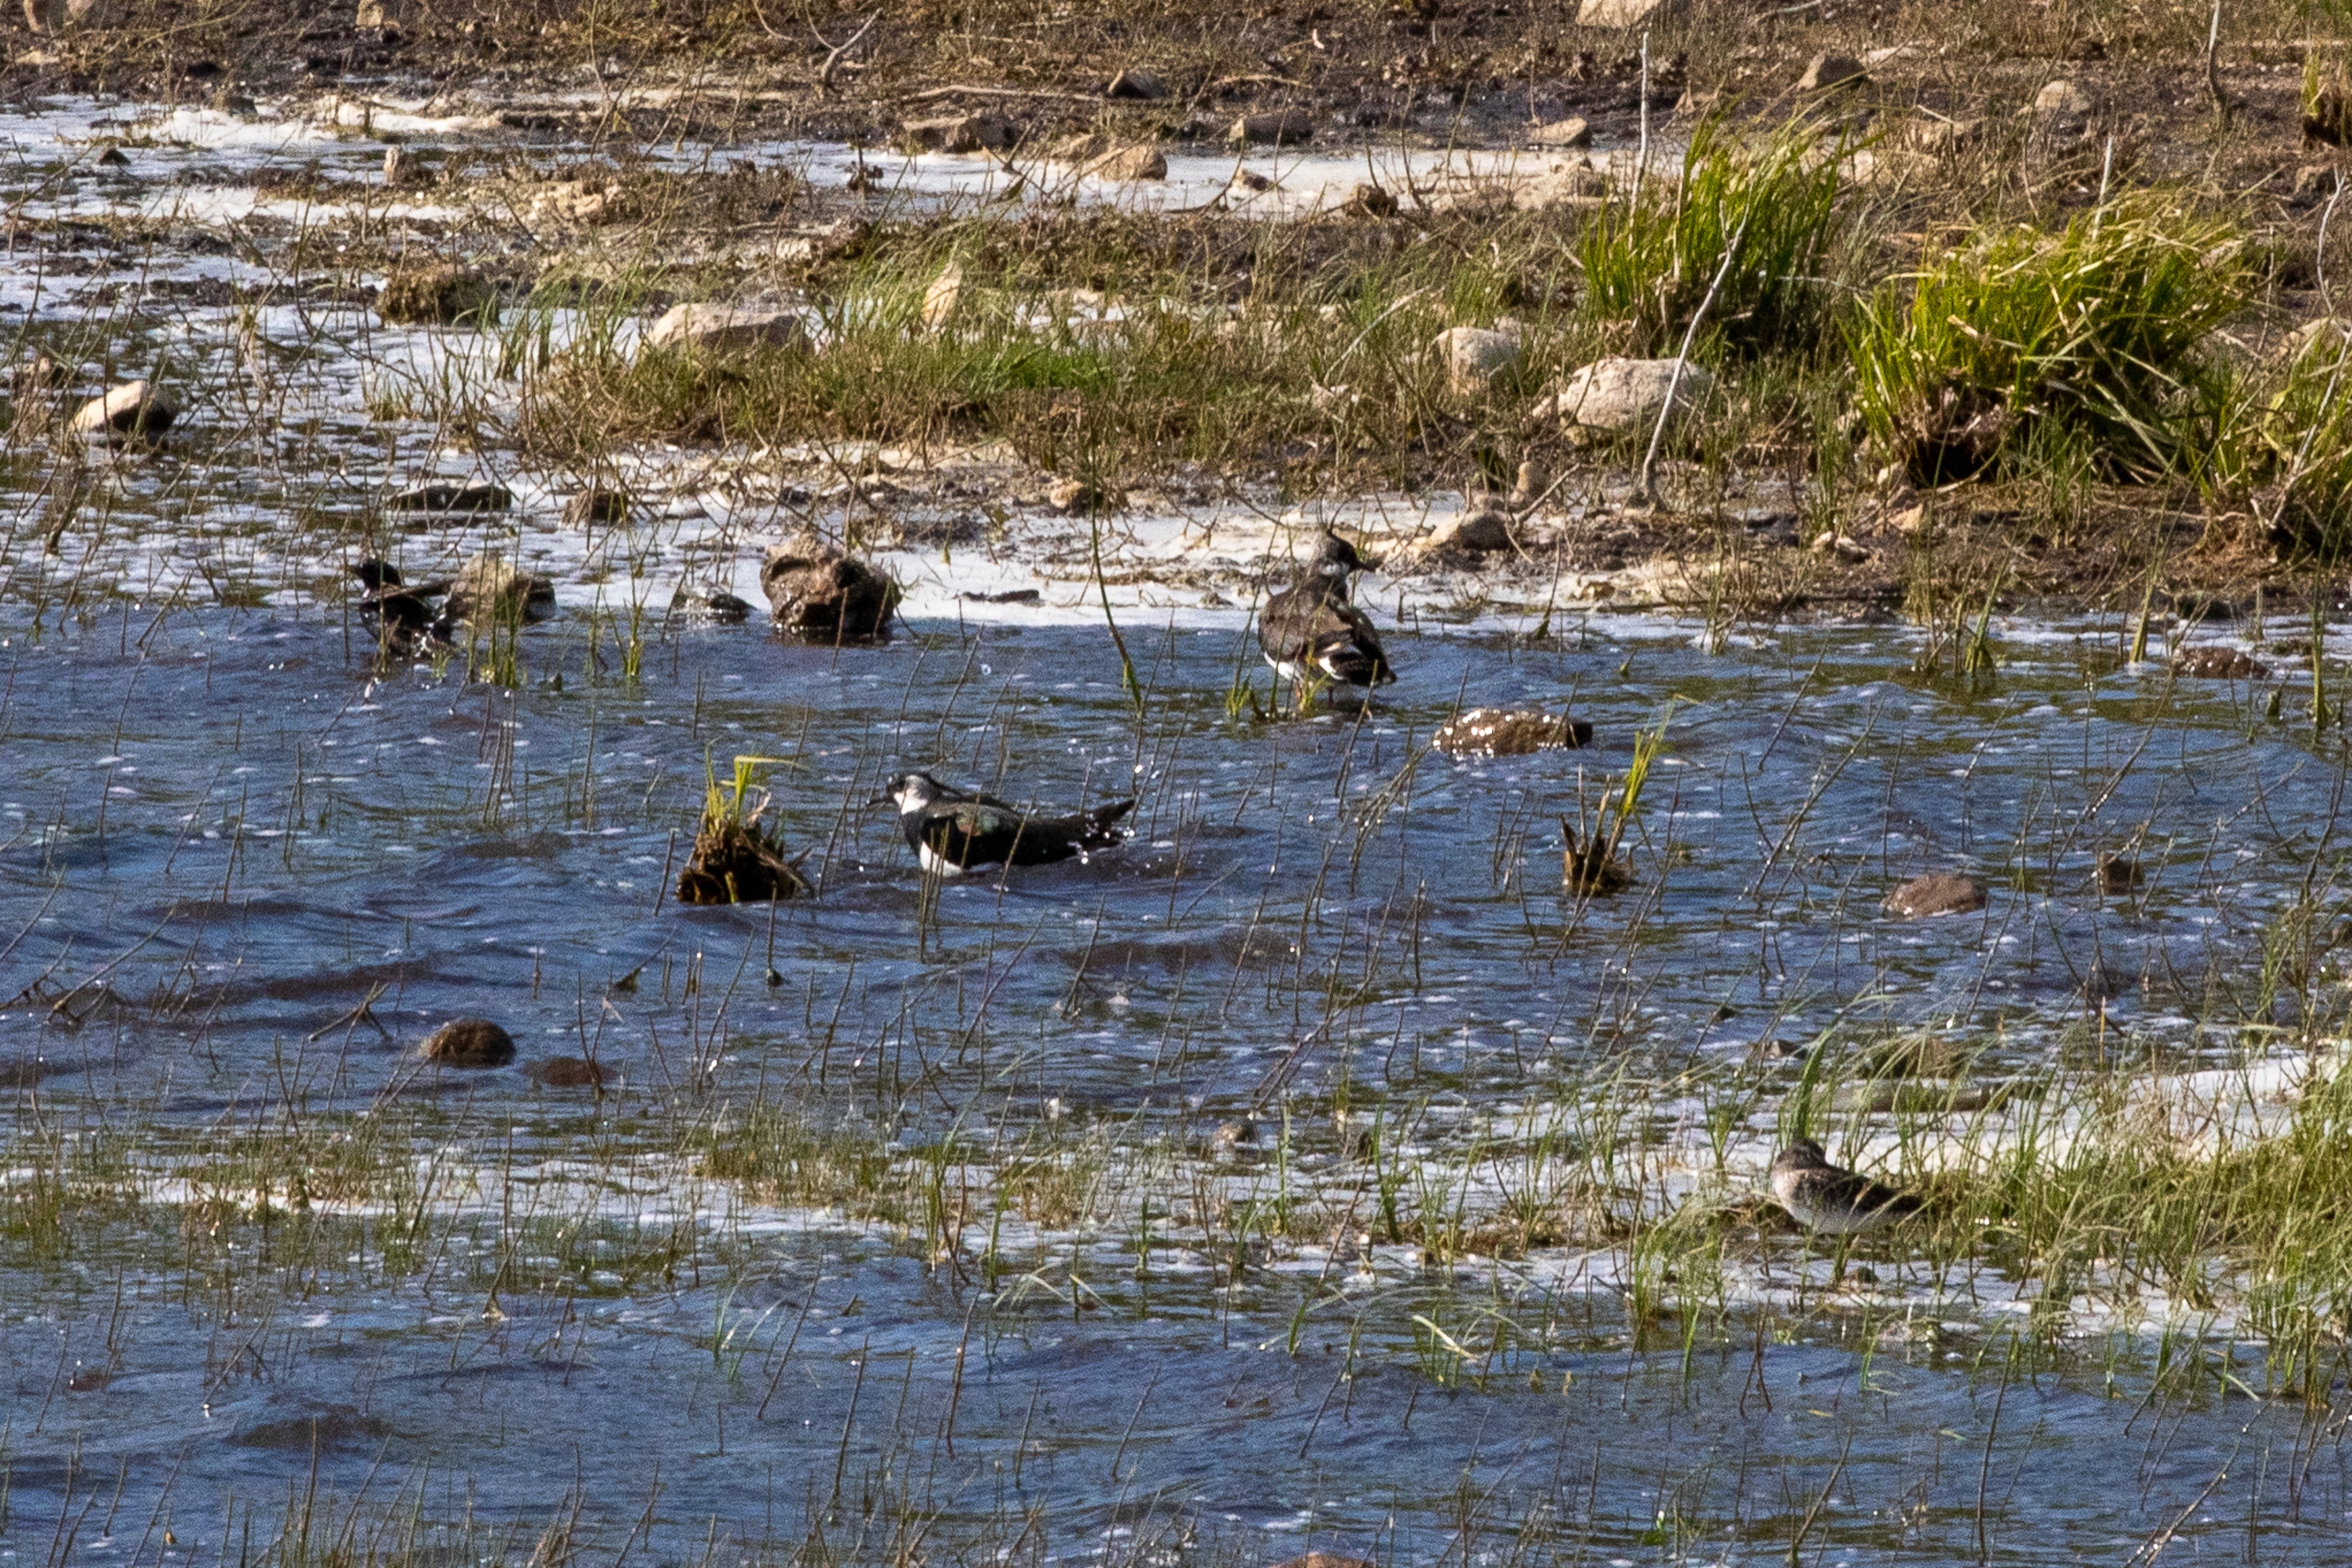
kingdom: Animalia
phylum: Chordata
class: Aves
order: Charadriiformes
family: Charadriidae
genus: Vanellus
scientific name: Vanellus vanellus
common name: Vibe
